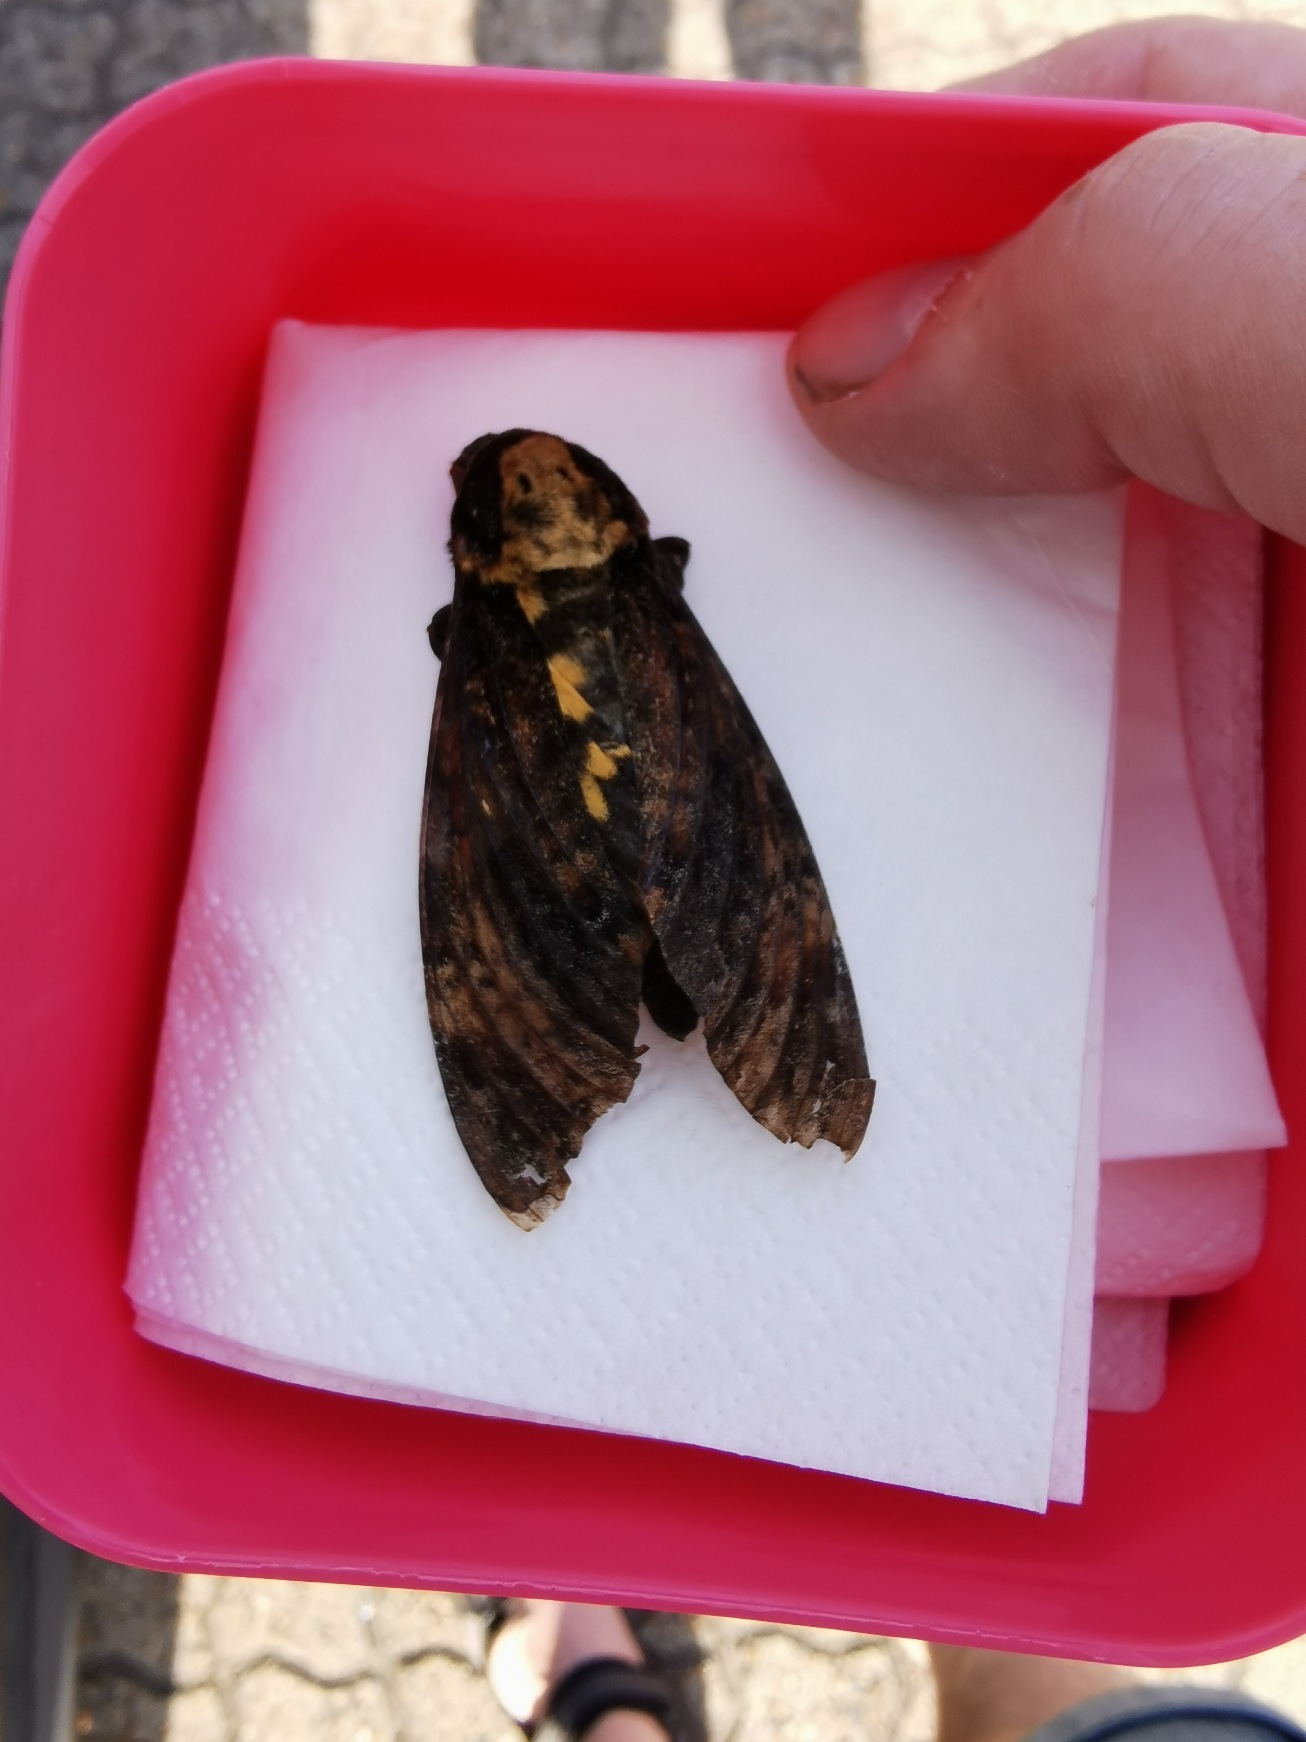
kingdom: Animalia
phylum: Arthropoda
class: Insecta
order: Lepidoptera
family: Sphingidae
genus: Acherontia
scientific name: Acherontia atropos
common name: Dødningehoved
